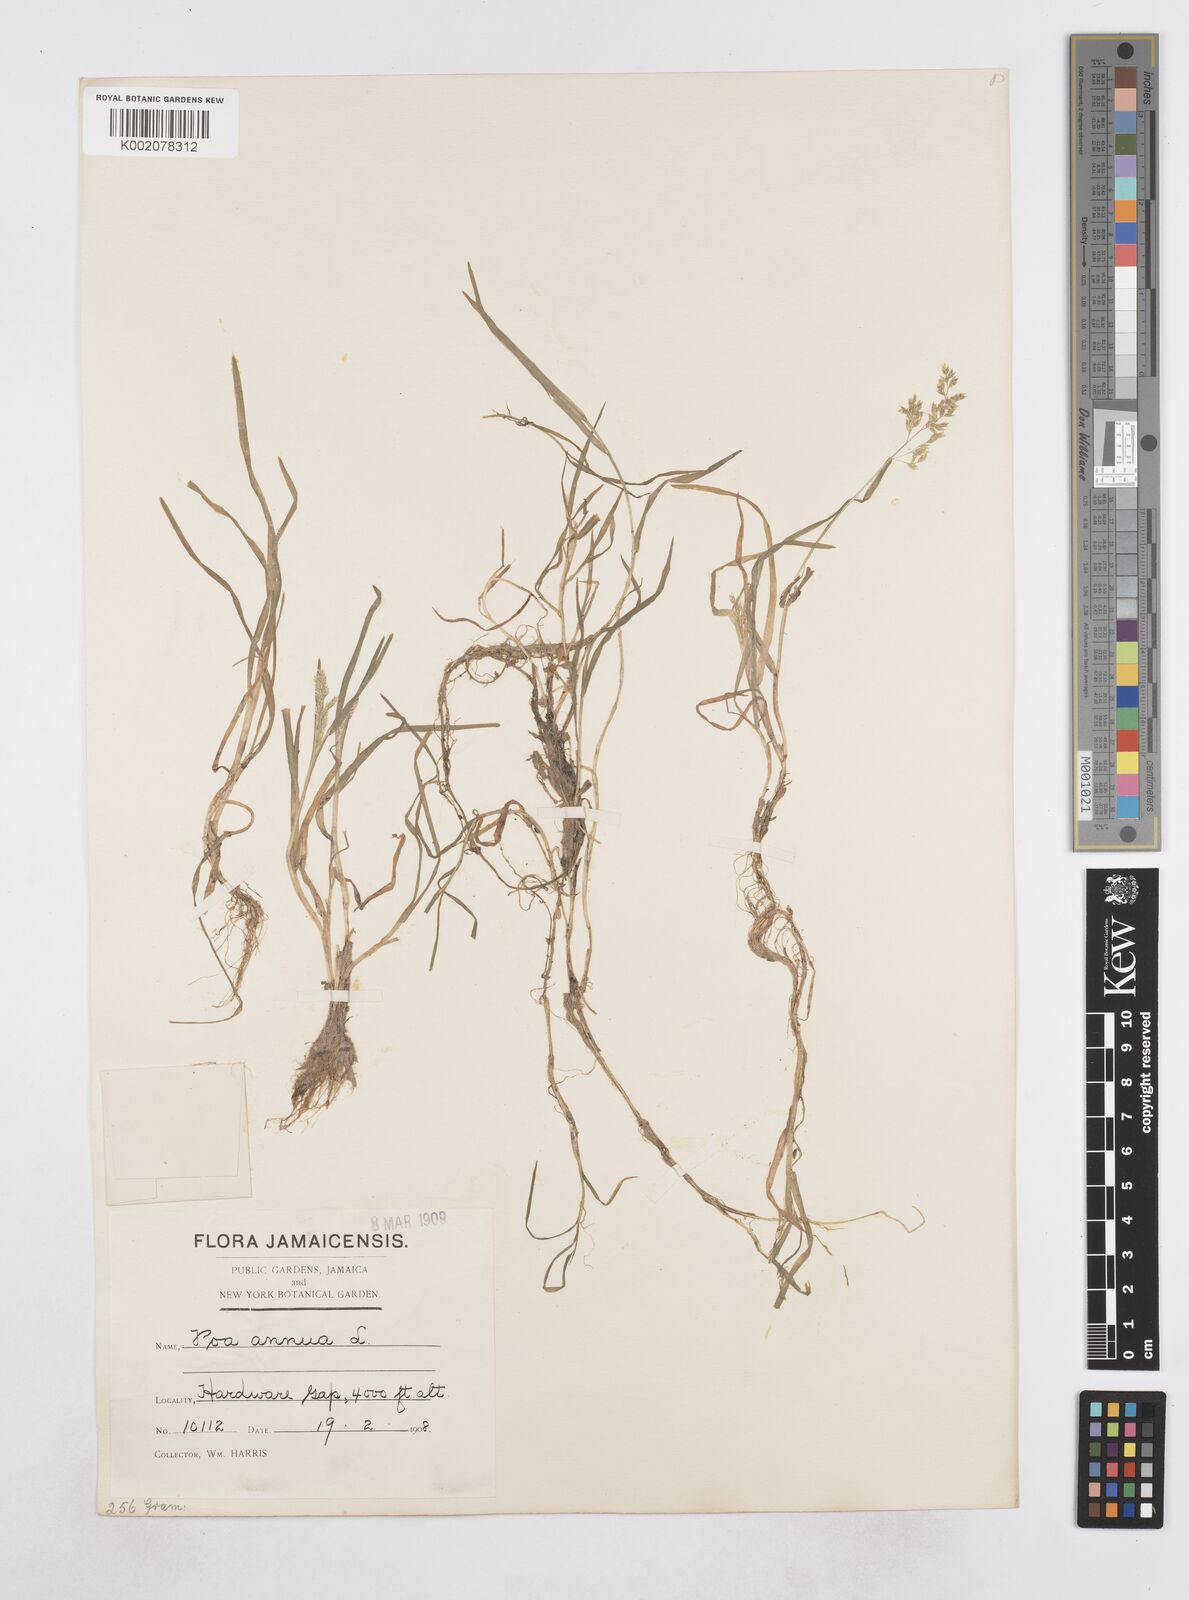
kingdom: Plantae
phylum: Tracheophyta
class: Liliopsida
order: Poales
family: Poaceae
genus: Poa
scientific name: Poa annua
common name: Annual bluegrass
